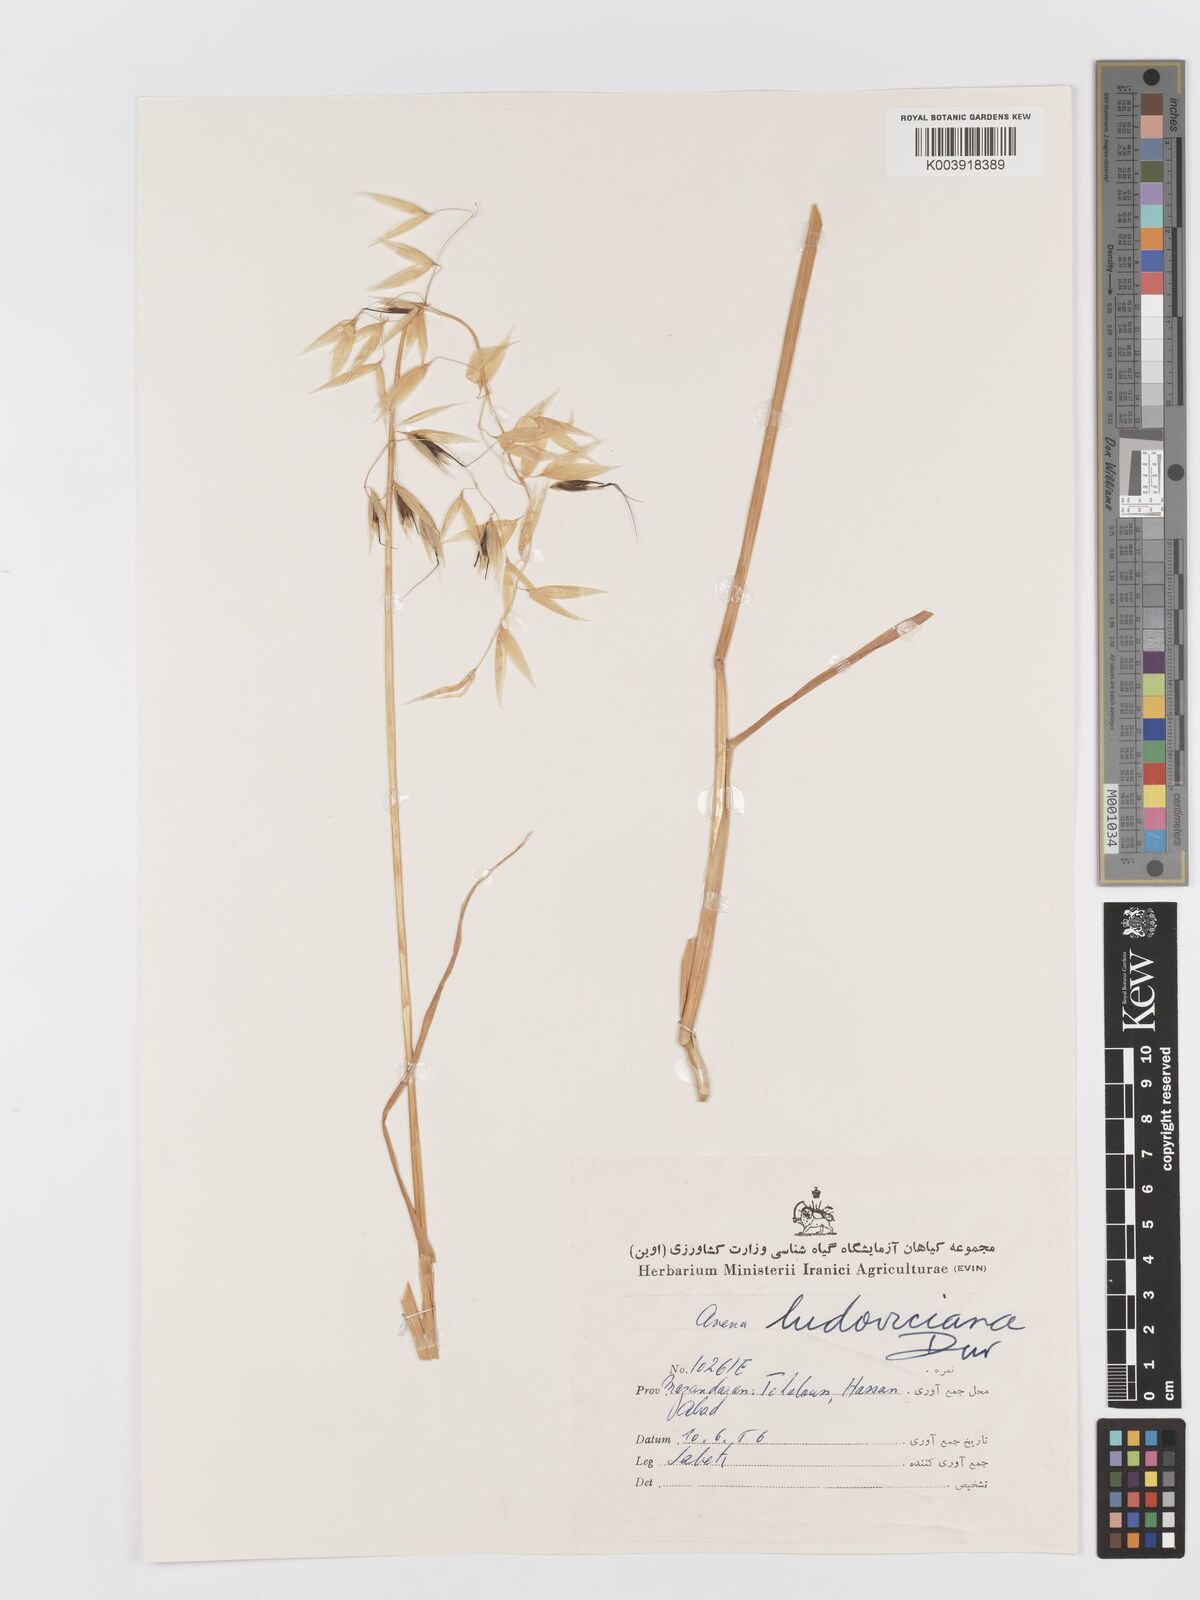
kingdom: Plantae
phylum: Tracheophyta
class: Liliopsida
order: Poales
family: Poaceae
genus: Avena
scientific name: Avena sterilis
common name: Animated oat
